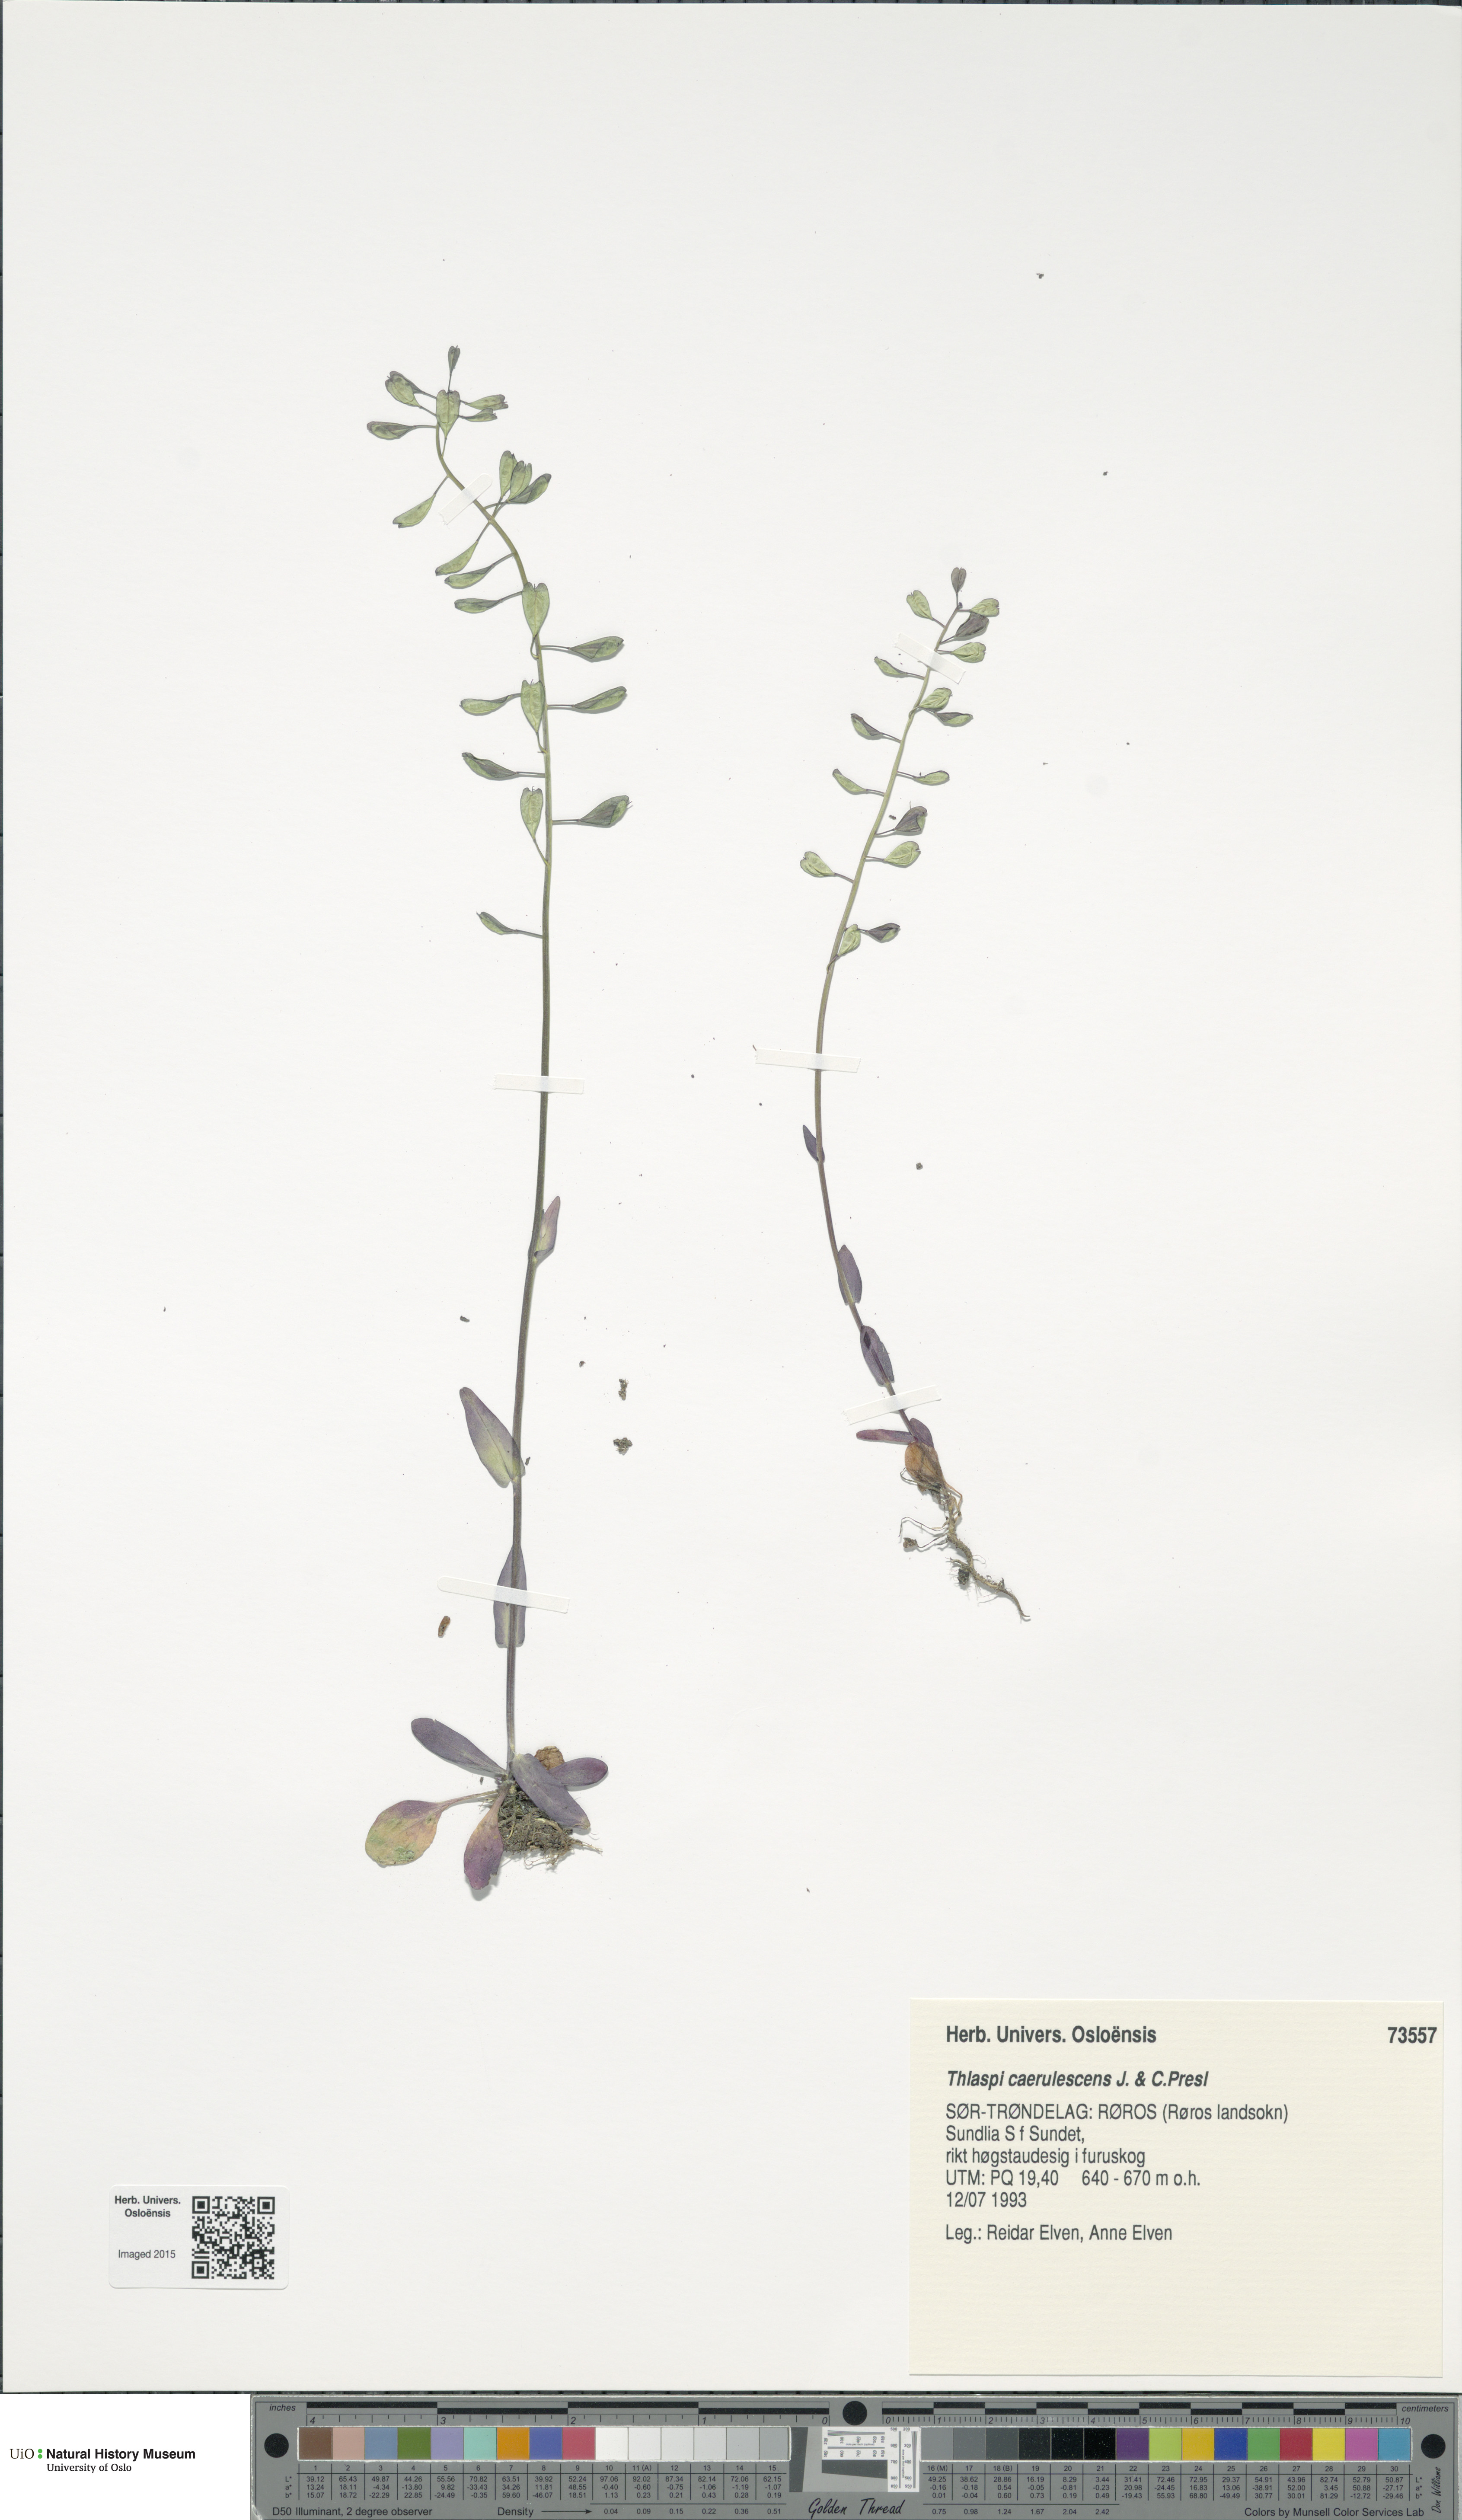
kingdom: Plantae
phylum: Tracheophyta
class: Magnoliopsida
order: Brassicales
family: Brassicaceae
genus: Noccaea
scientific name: Noccaea caerulescens
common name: Alpine pennycress
